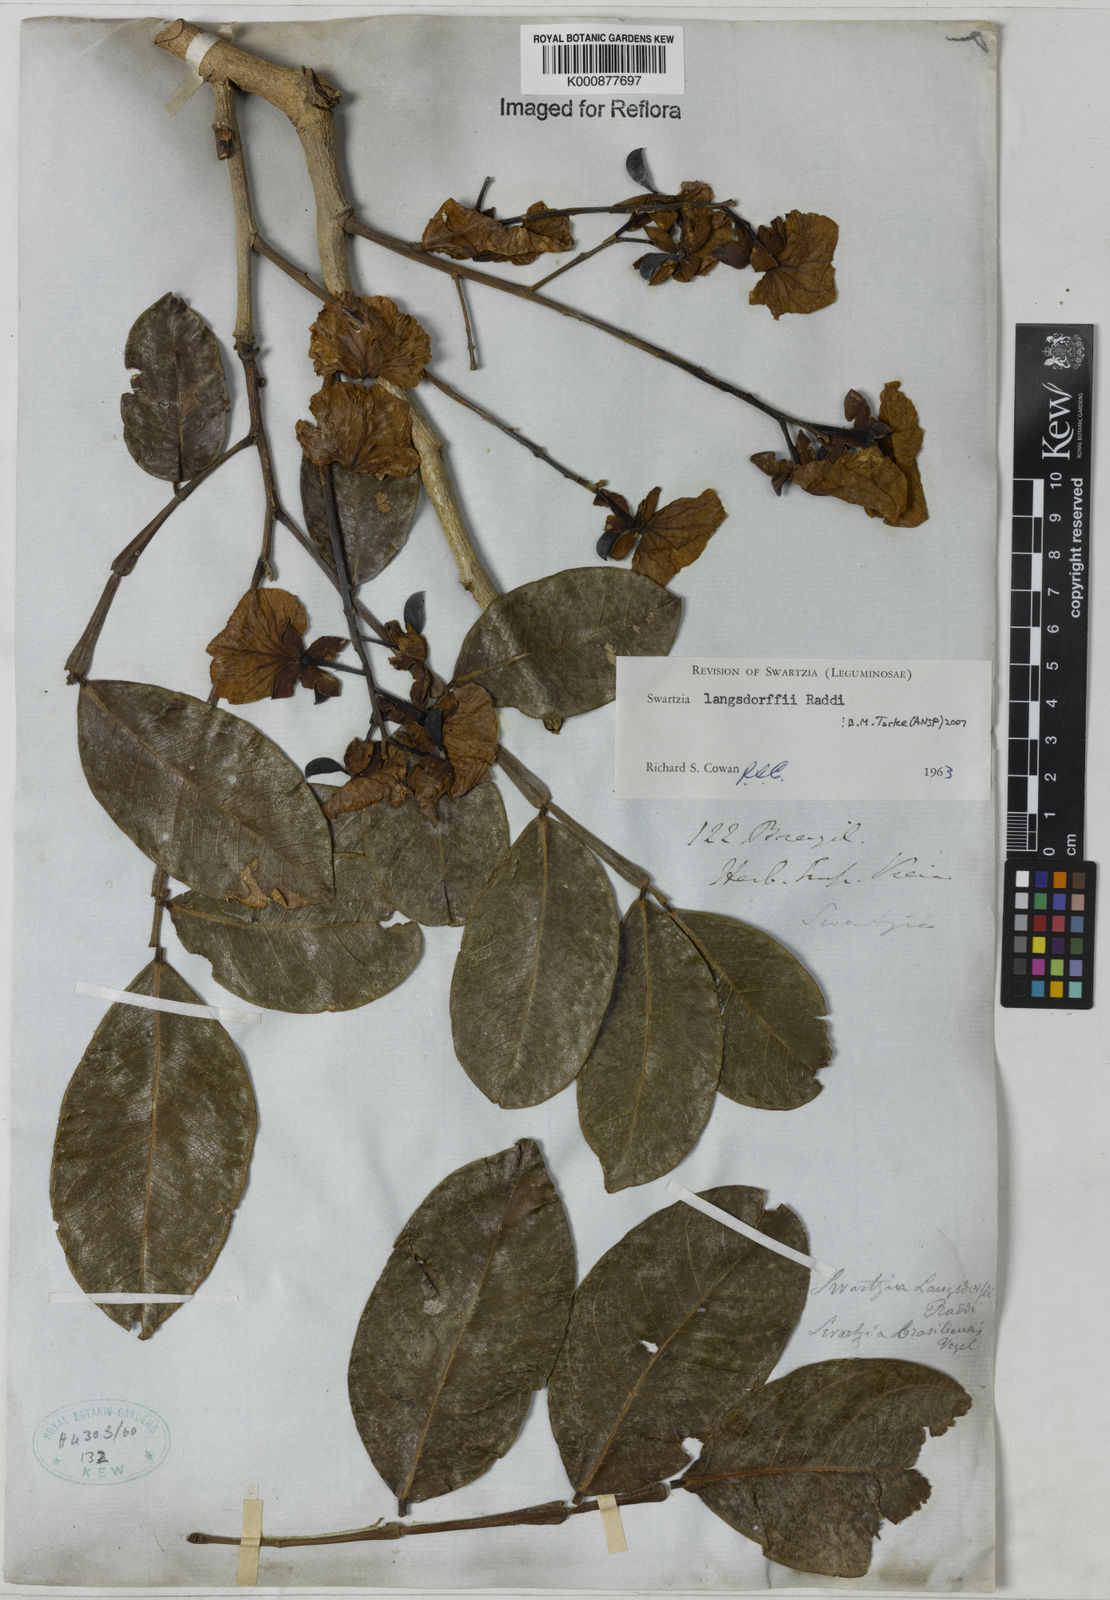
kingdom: Plantae
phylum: Tracheophyta
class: Magnoliopsida
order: Fabales
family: Fabaceae
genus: Swartzia
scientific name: Swartzia langsdorffii
